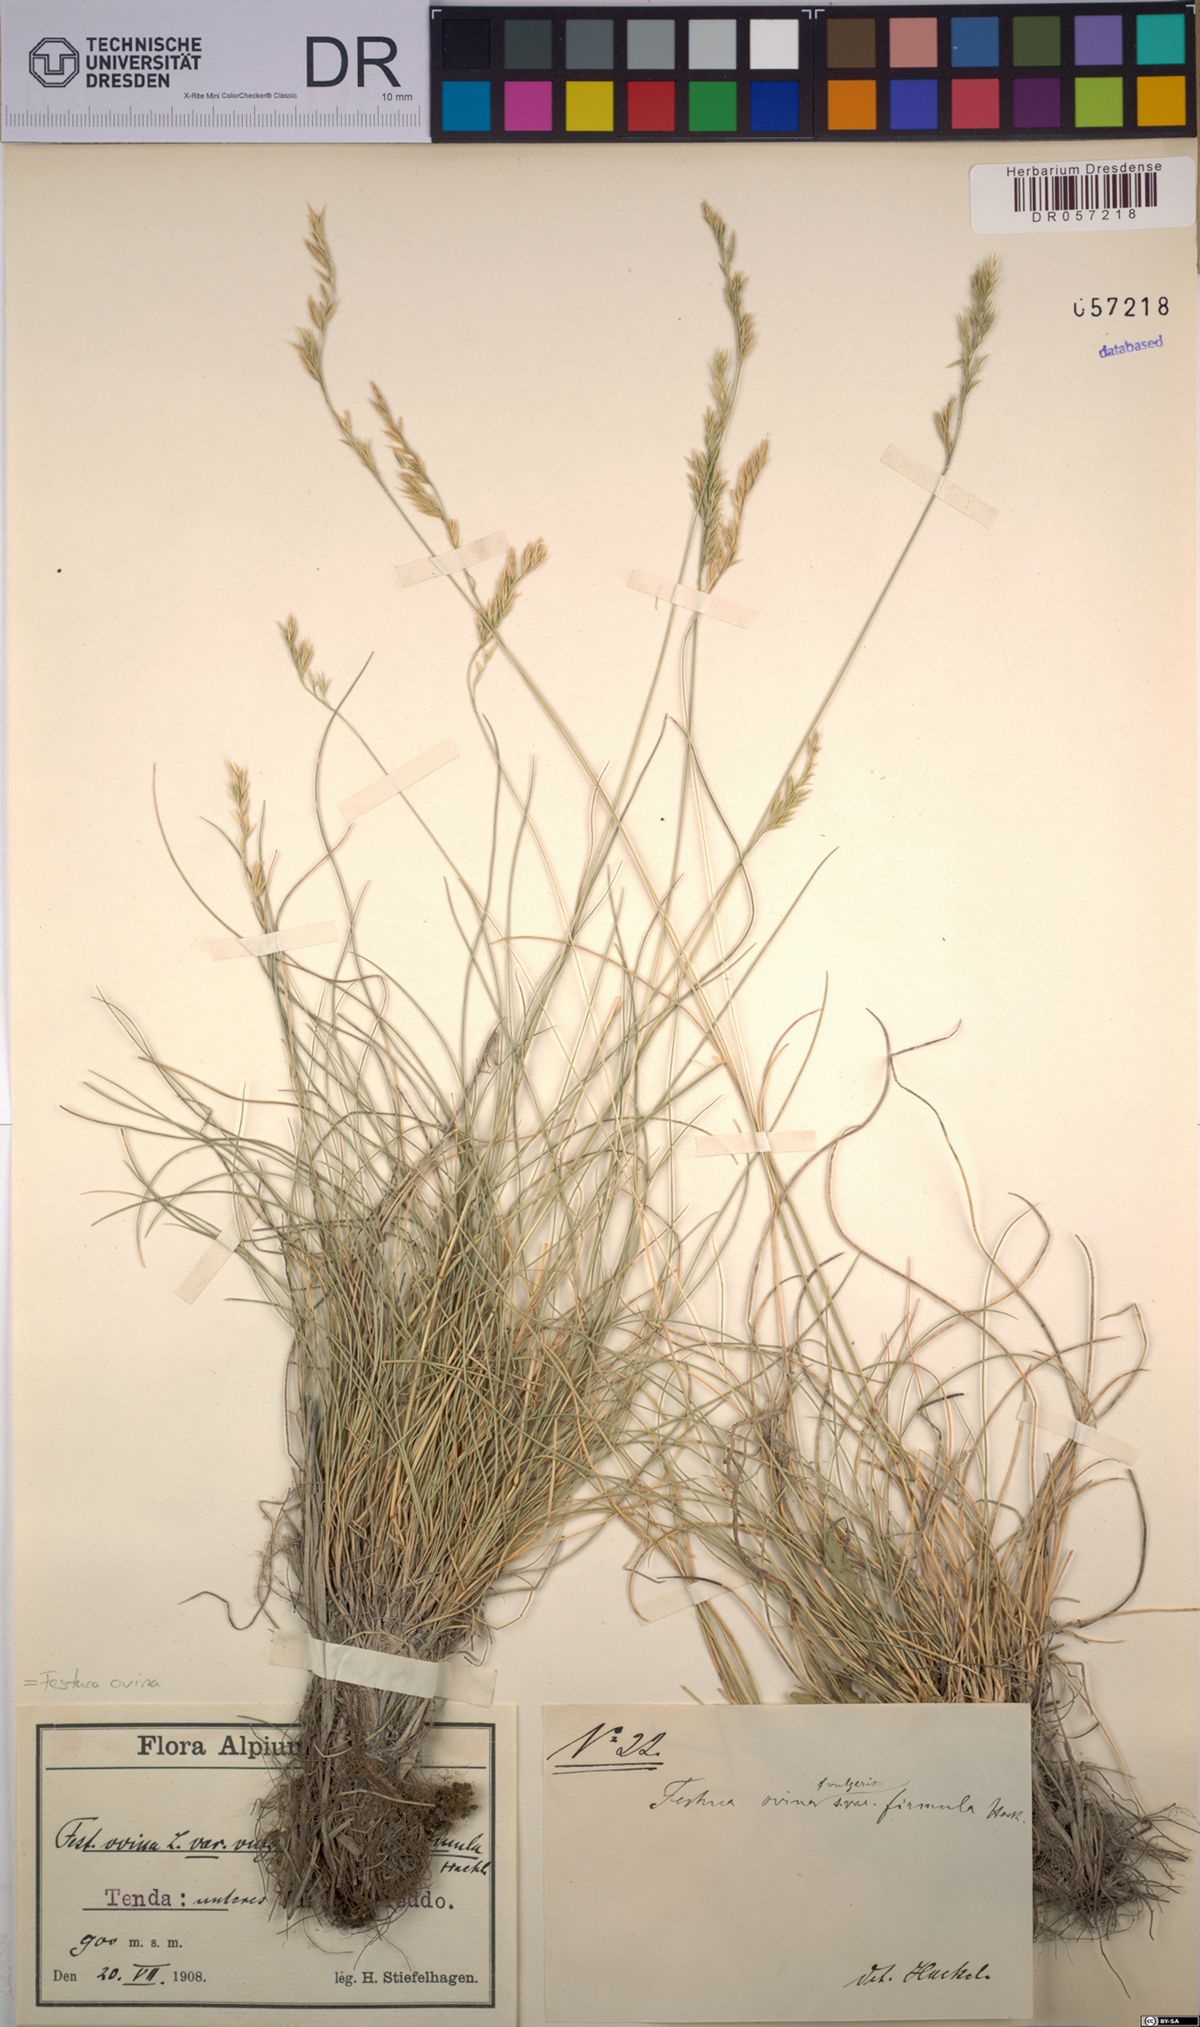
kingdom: Plantae
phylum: Tracheophyta
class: Liliopsida
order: Poales
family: Poaceae
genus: Festuca
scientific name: Festuca ovina
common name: Sheep fescue
